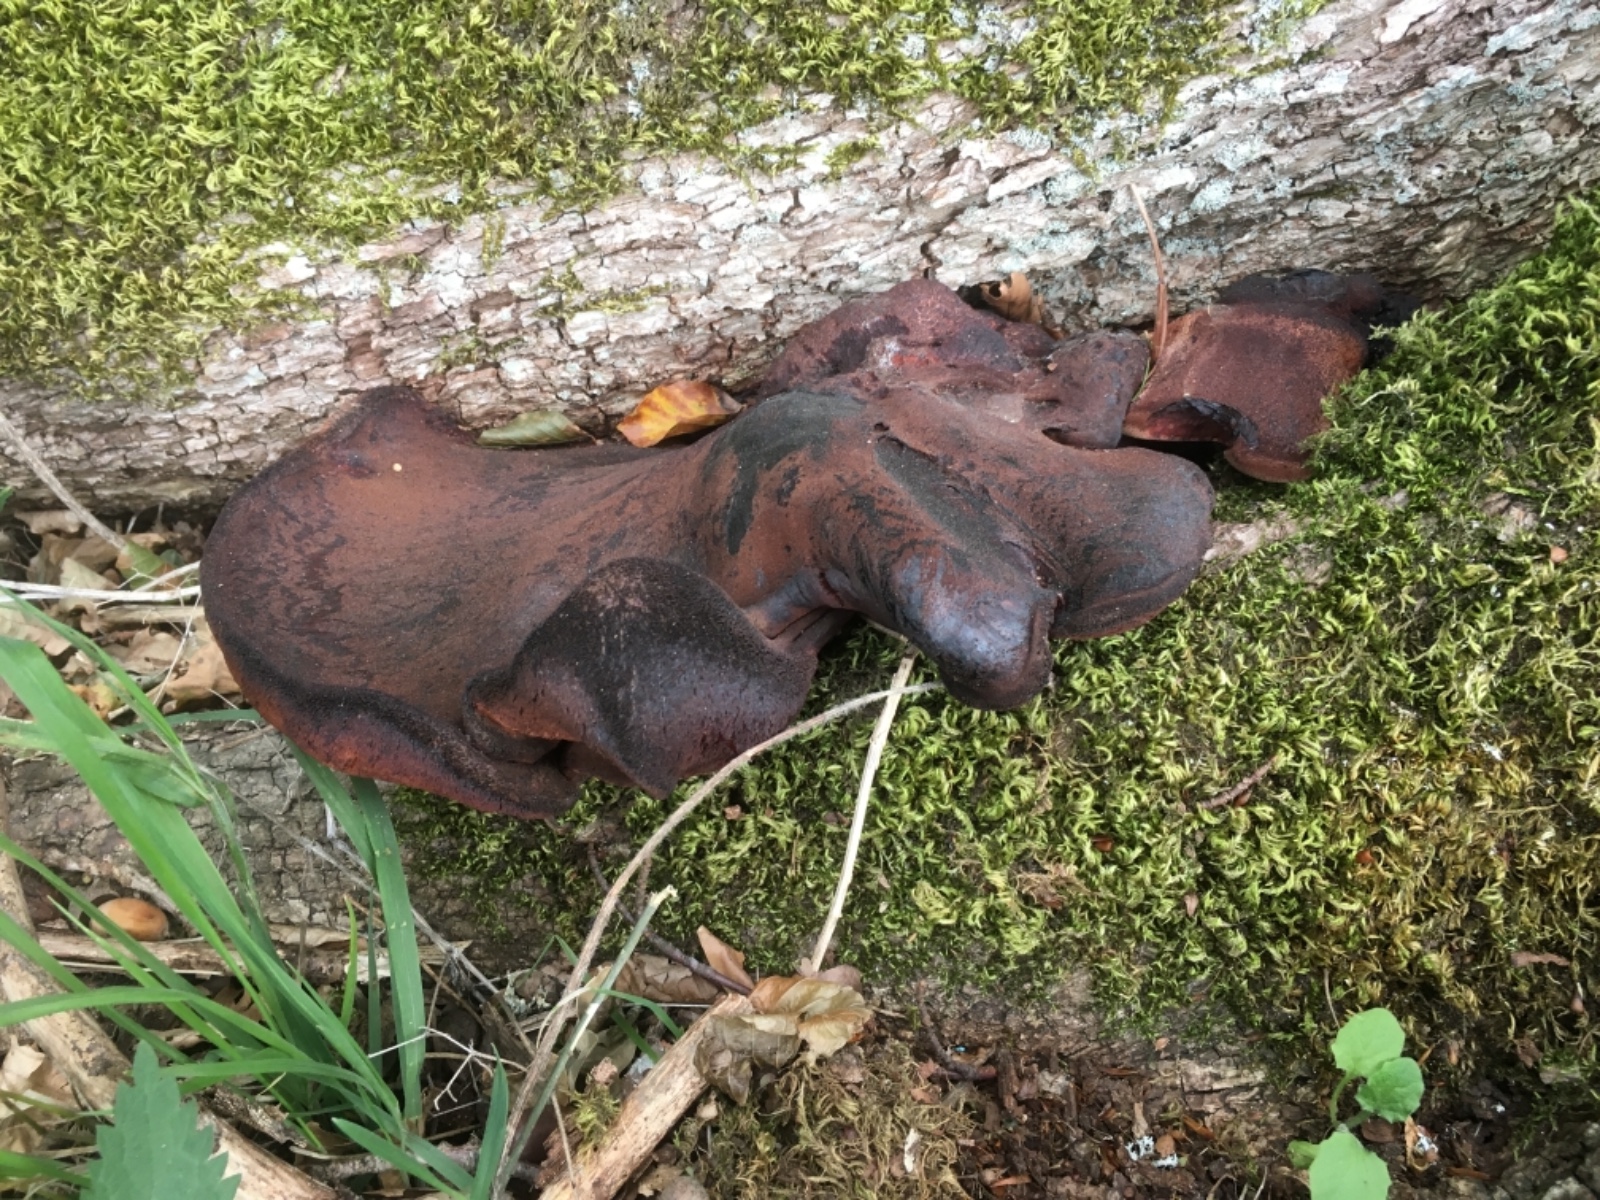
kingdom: Fungi
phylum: Basidiomycota
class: Agaricomycetes
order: Agaricales
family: Fistulinaceae
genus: Fistulina
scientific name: Fistulina hepatica
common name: oksetunge
